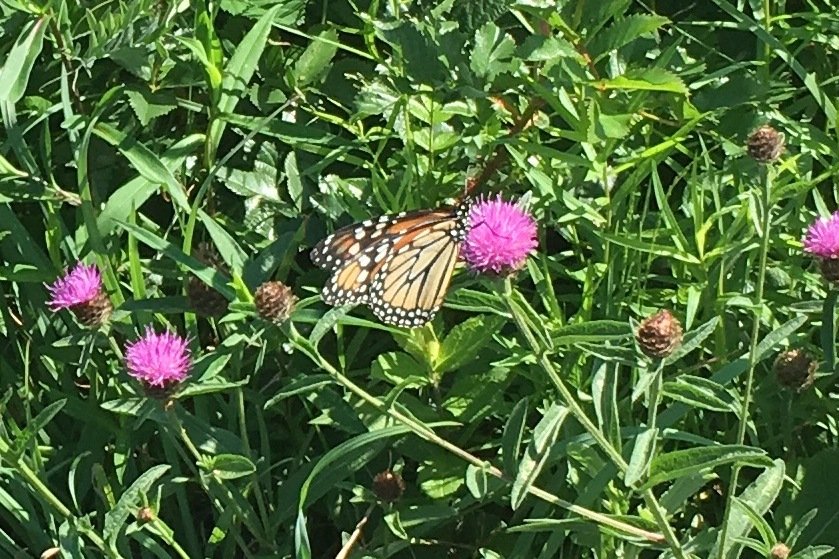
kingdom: Animalia
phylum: Arthropoda
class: Insecta
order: Lepidoptera
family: Nymphalidae
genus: Danaus
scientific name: Danaus plexippus
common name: Monarch
